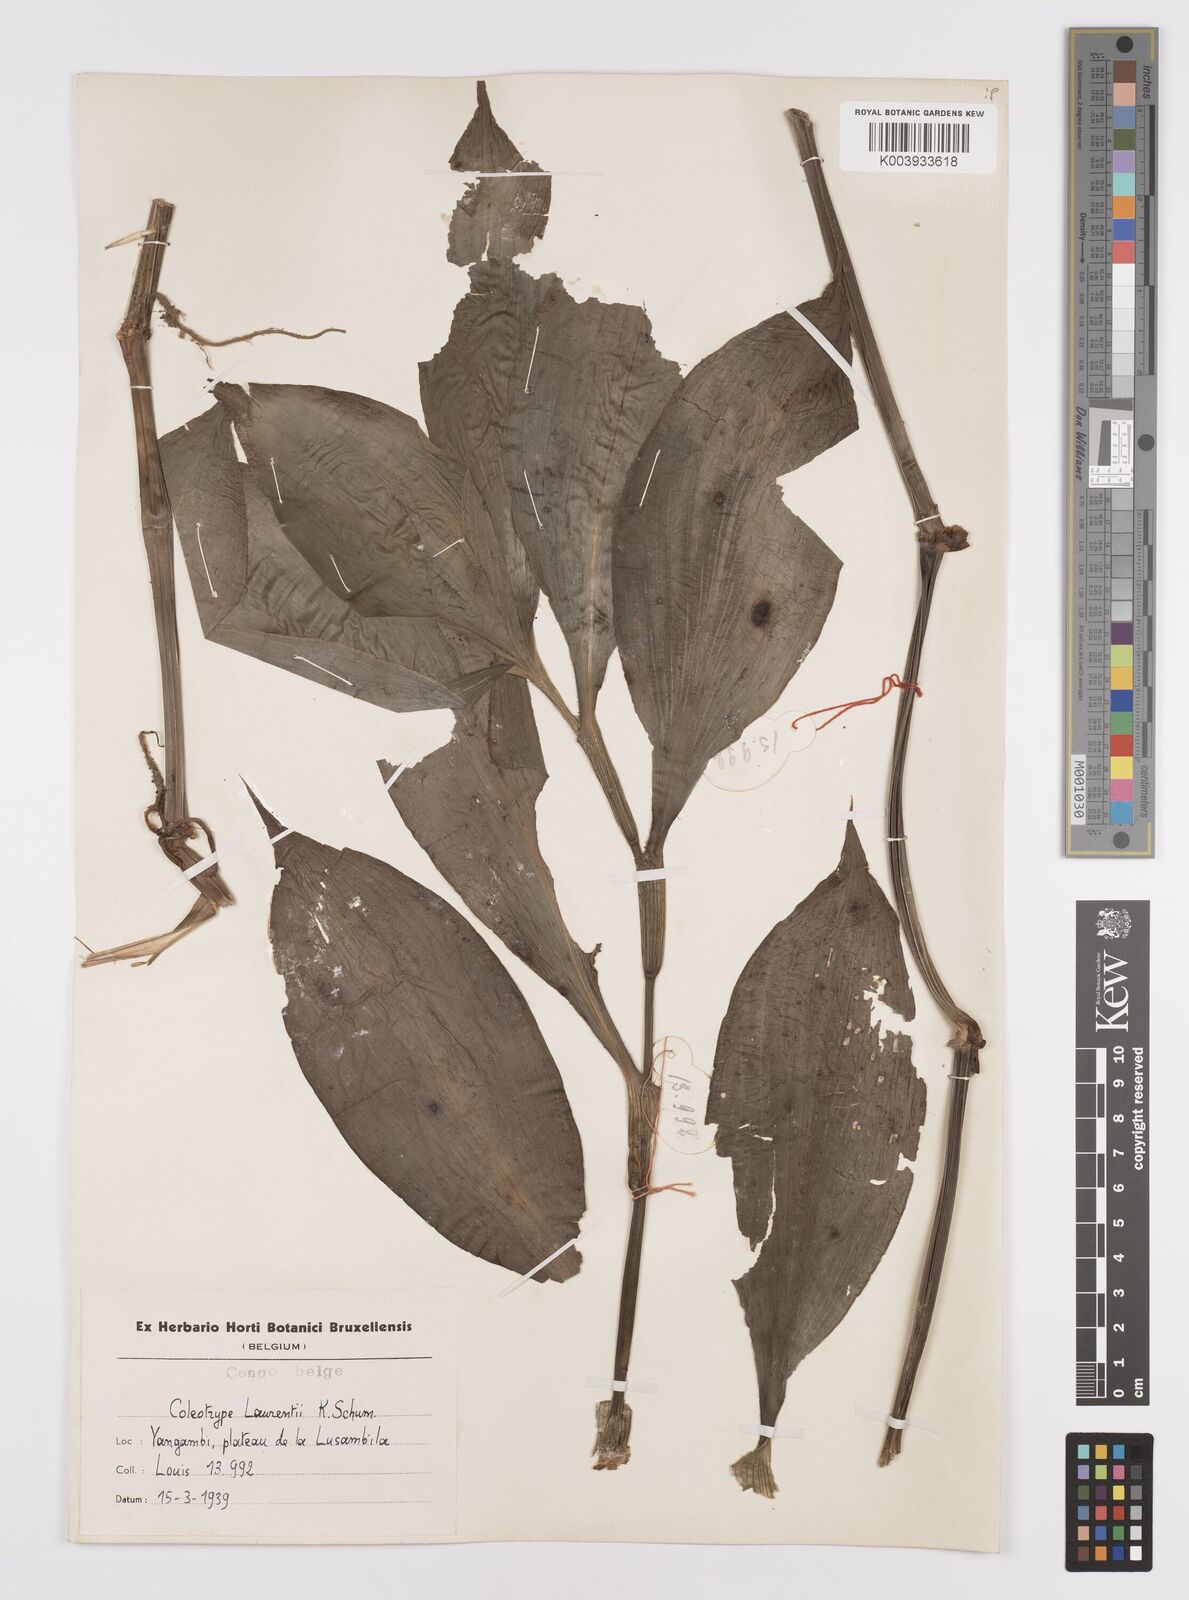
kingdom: Plantae
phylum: Tracheophyta
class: Liliopsida
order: Commelinales
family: Commelinaceae
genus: Coleotrype
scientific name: Coleotrype laurentii
